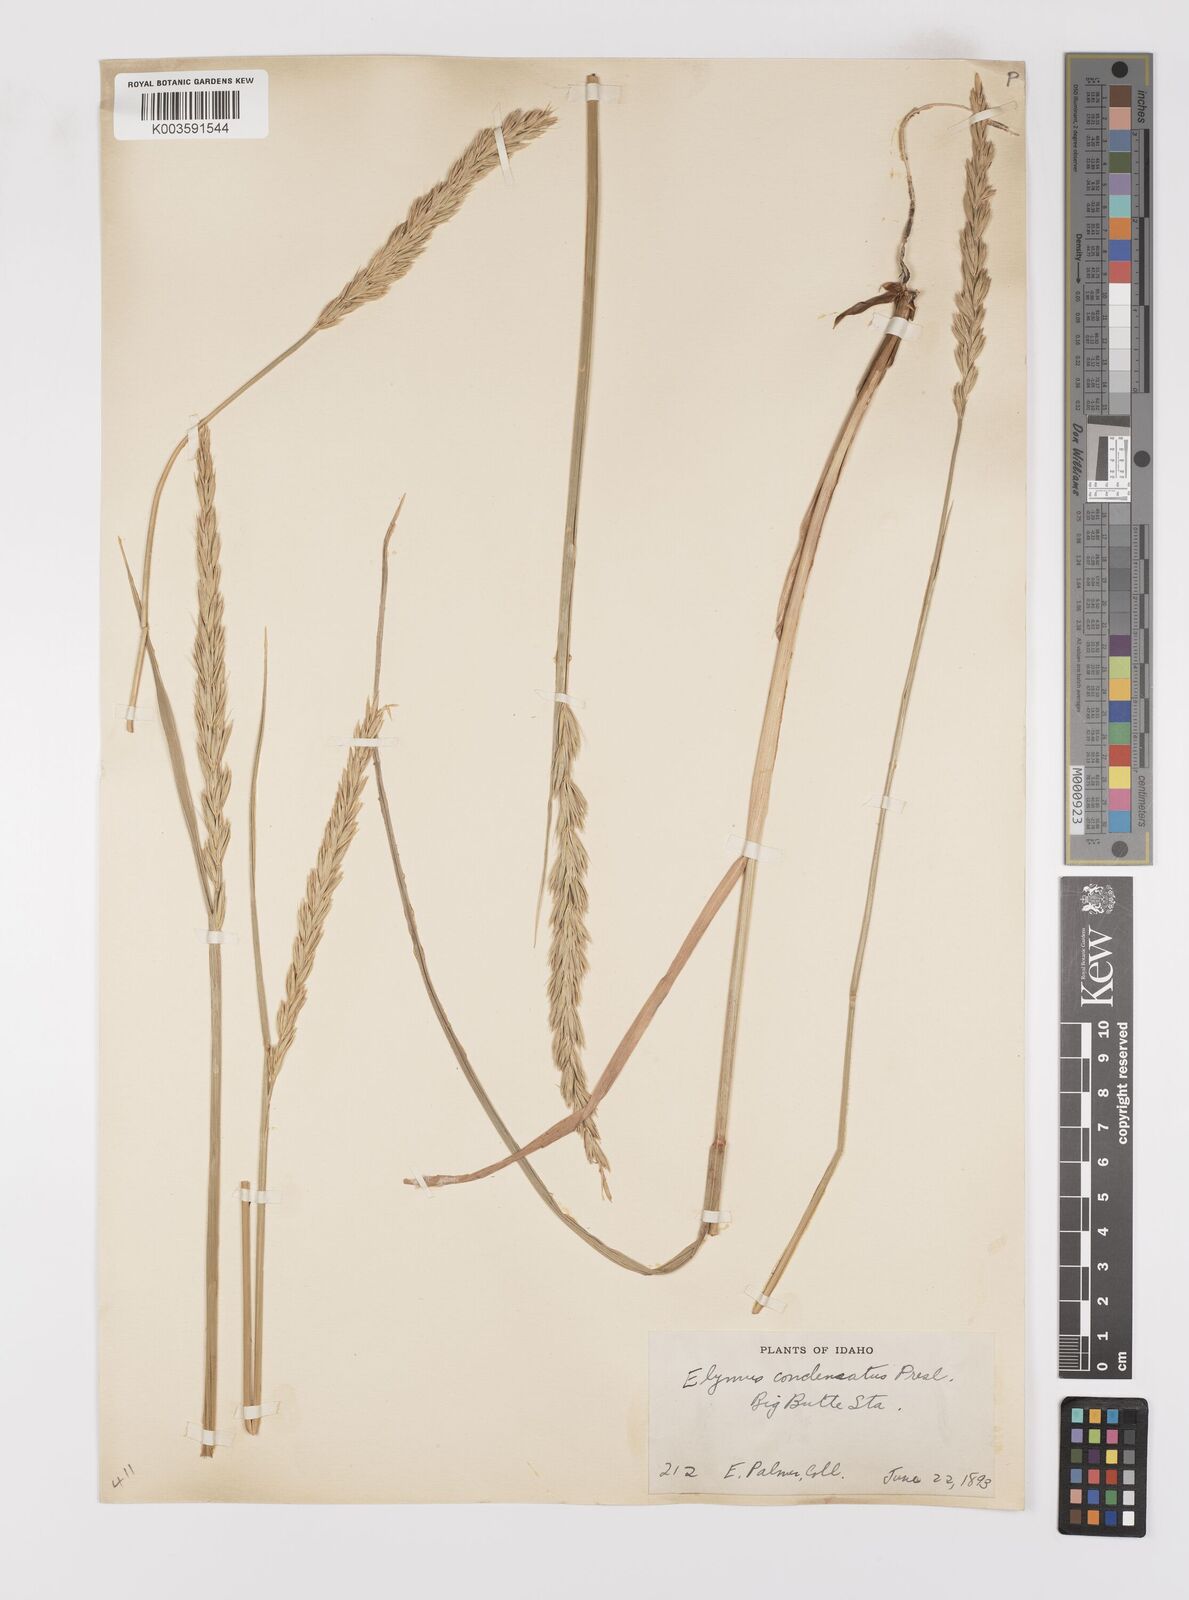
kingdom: Plantae
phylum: Tracheophyta
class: Liliopsida
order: Poales
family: Poaceae
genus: Leymus
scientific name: Leymus condensatus
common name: Giant wild rye
